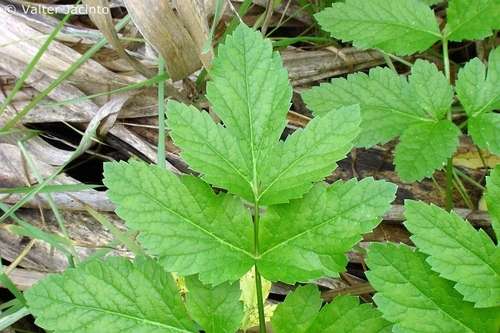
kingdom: Plantae
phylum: Tracheophyta
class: Magnoliopsida
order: Apiales
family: Apiaceae
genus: Smyrnium
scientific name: Smyrnium olusatrum
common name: Alexanders
